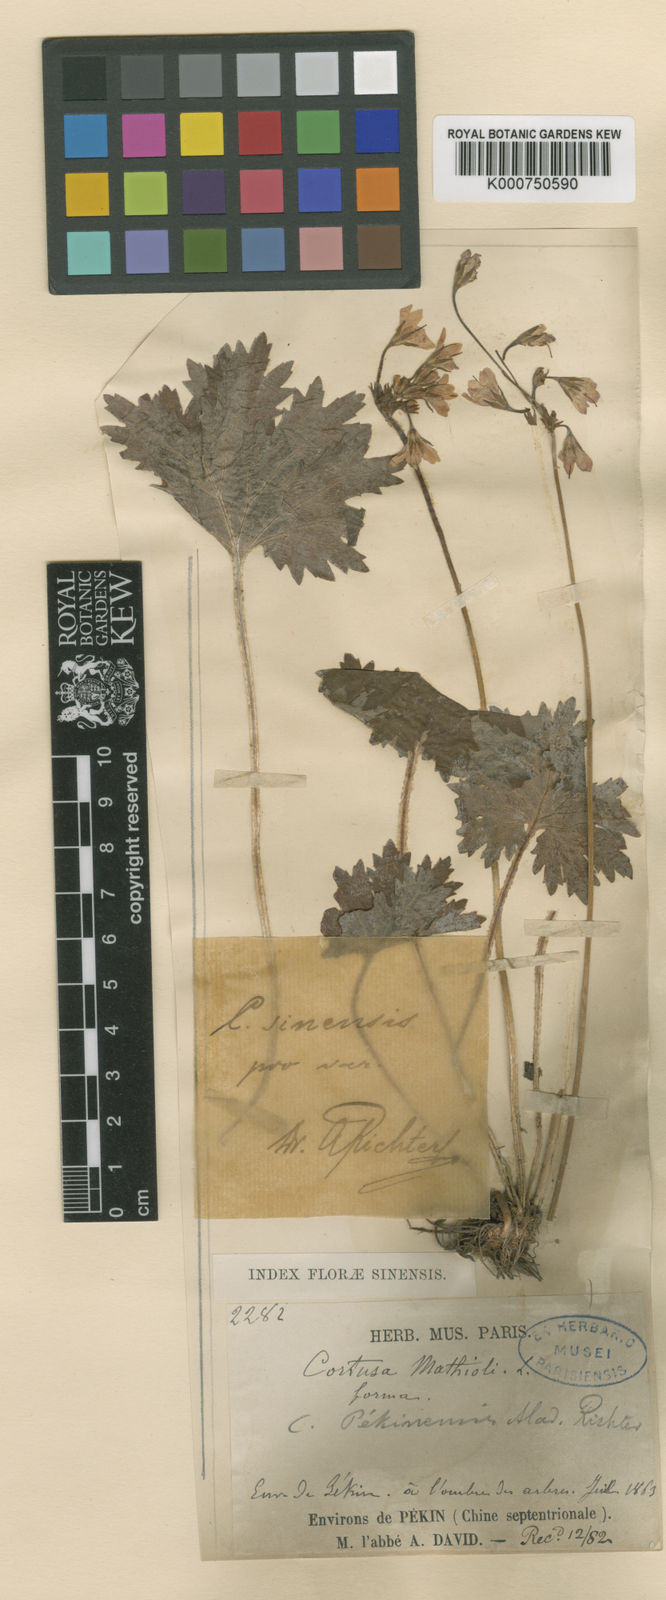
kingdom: Plantae
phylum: Tracheophyta
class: Magnoliopsida
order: Ericales
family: Primulaceae
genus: Primula
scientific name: Primula matthioli
